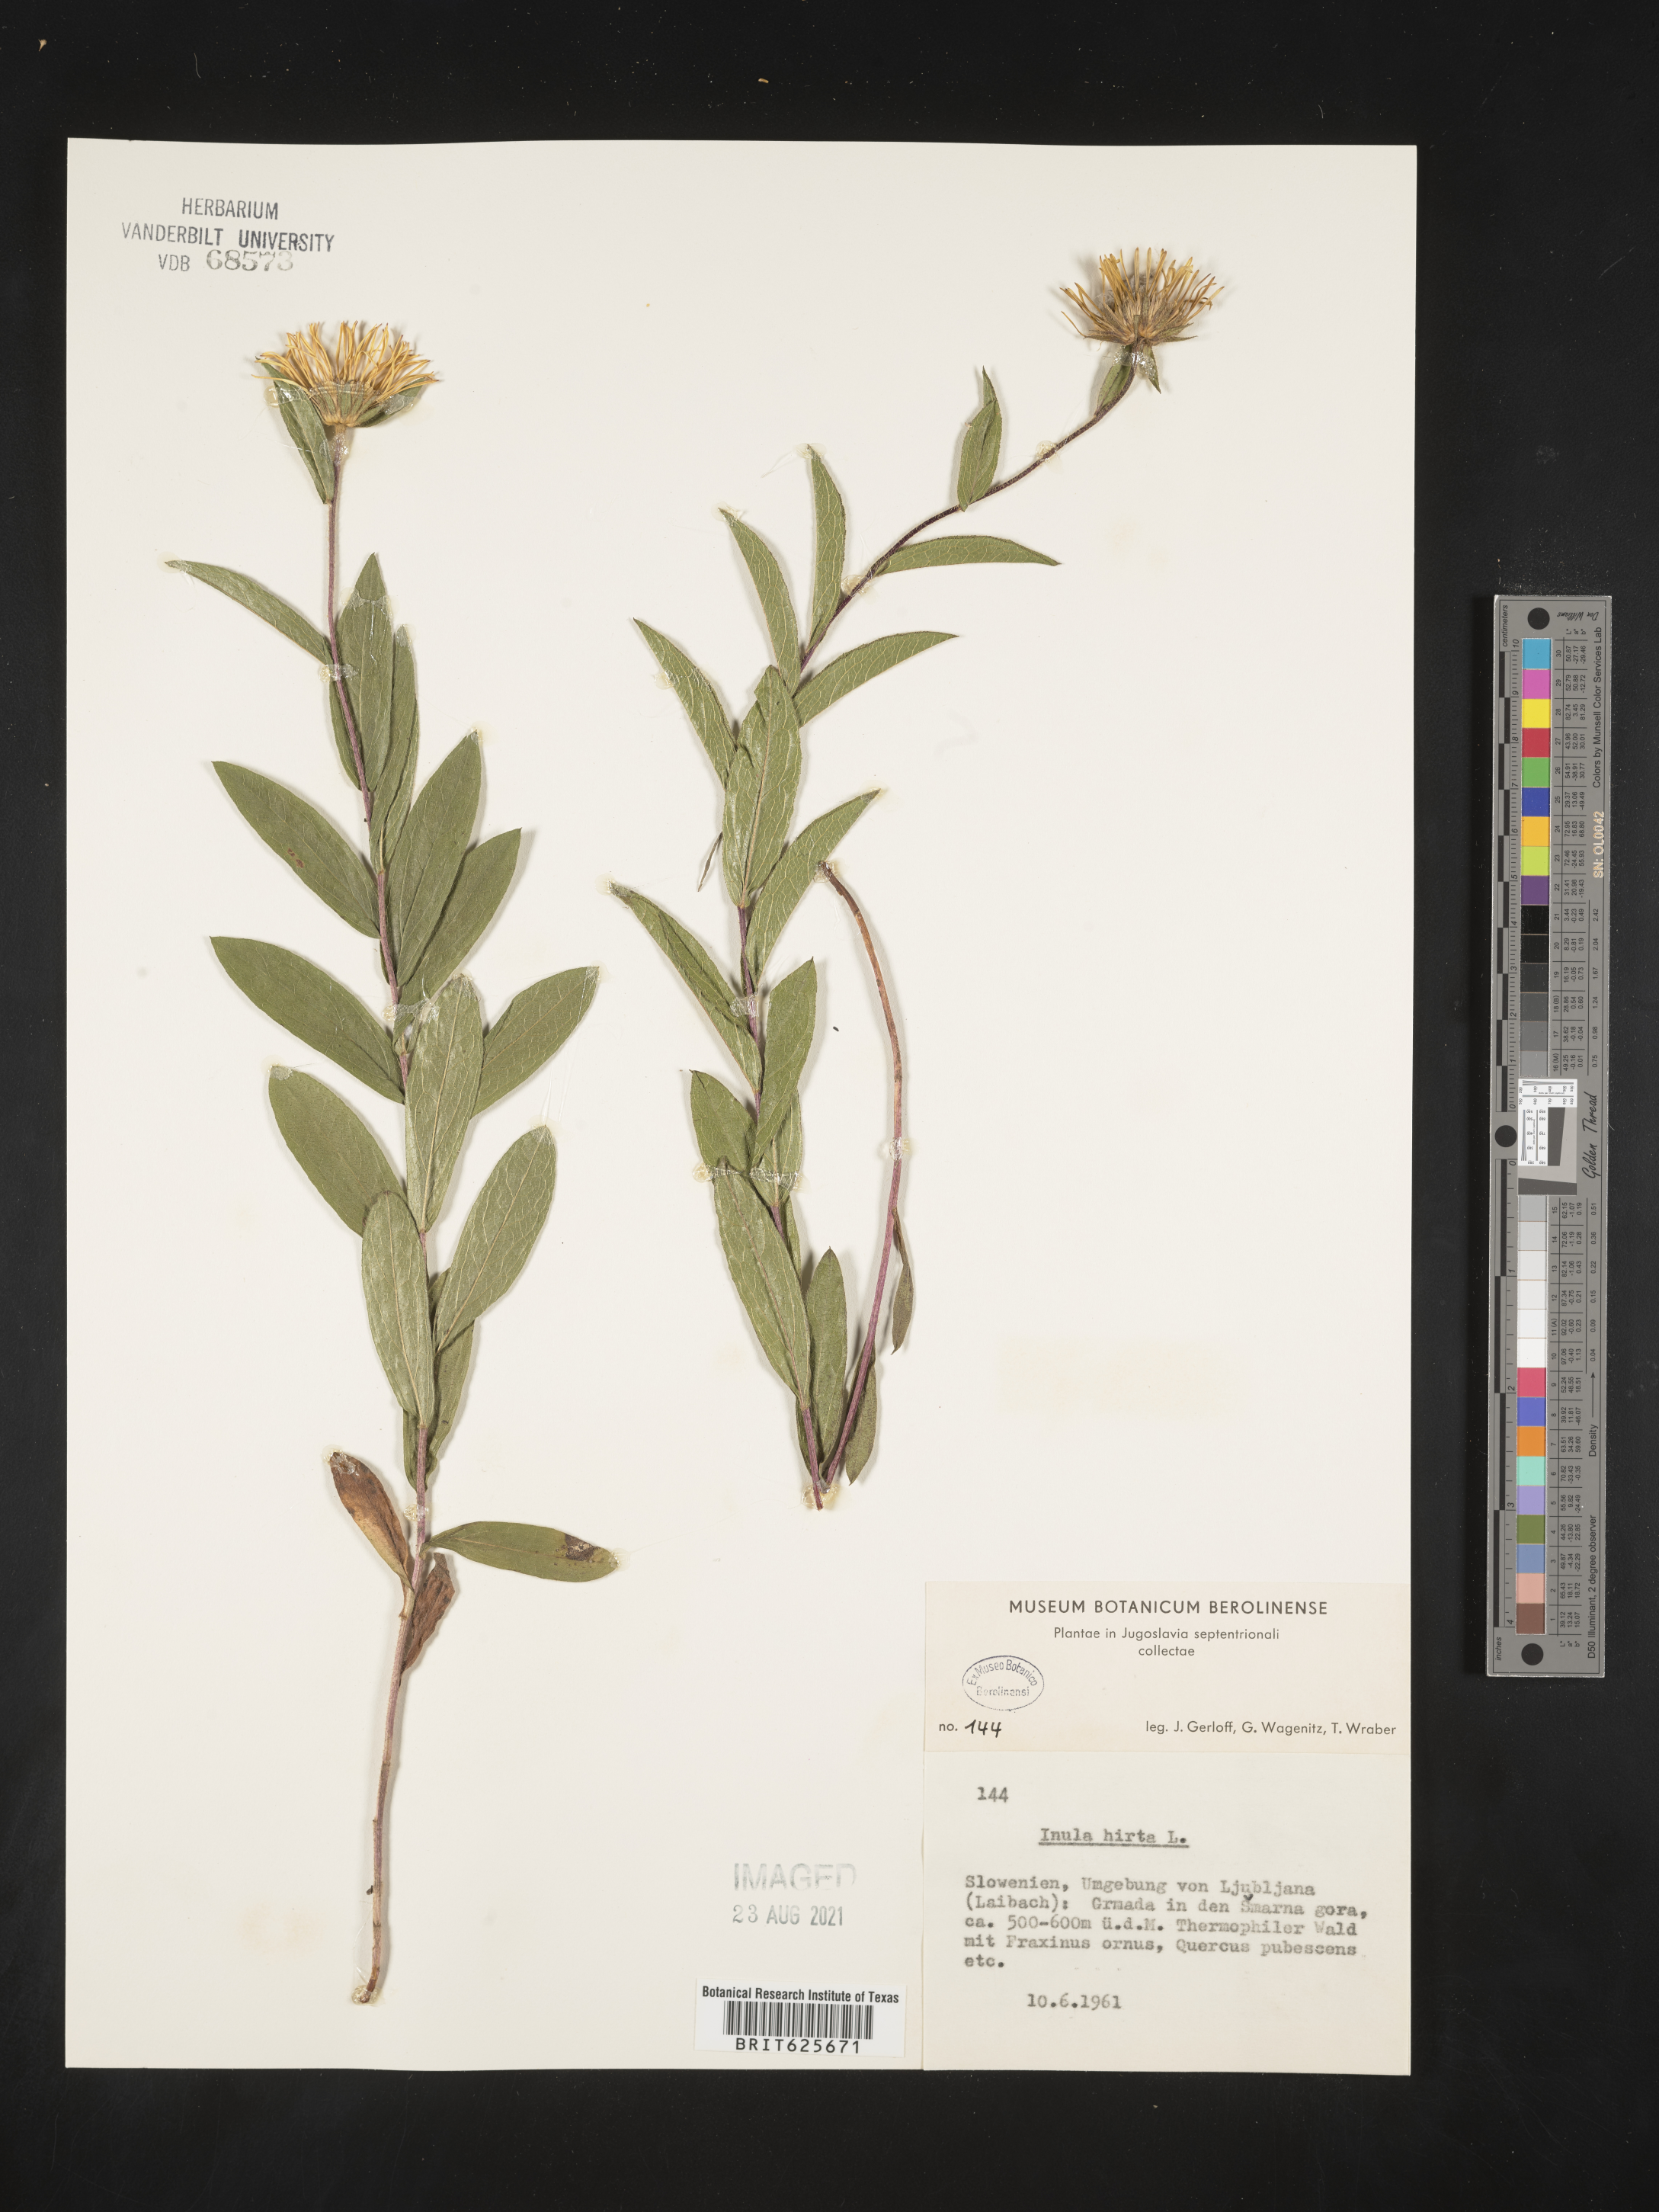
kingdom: Plantae
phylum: Tracheophyta
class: Magnoliopsida
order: Asterales
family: Asteraceae
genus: Pentanema
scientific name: Pentanema hirtum
